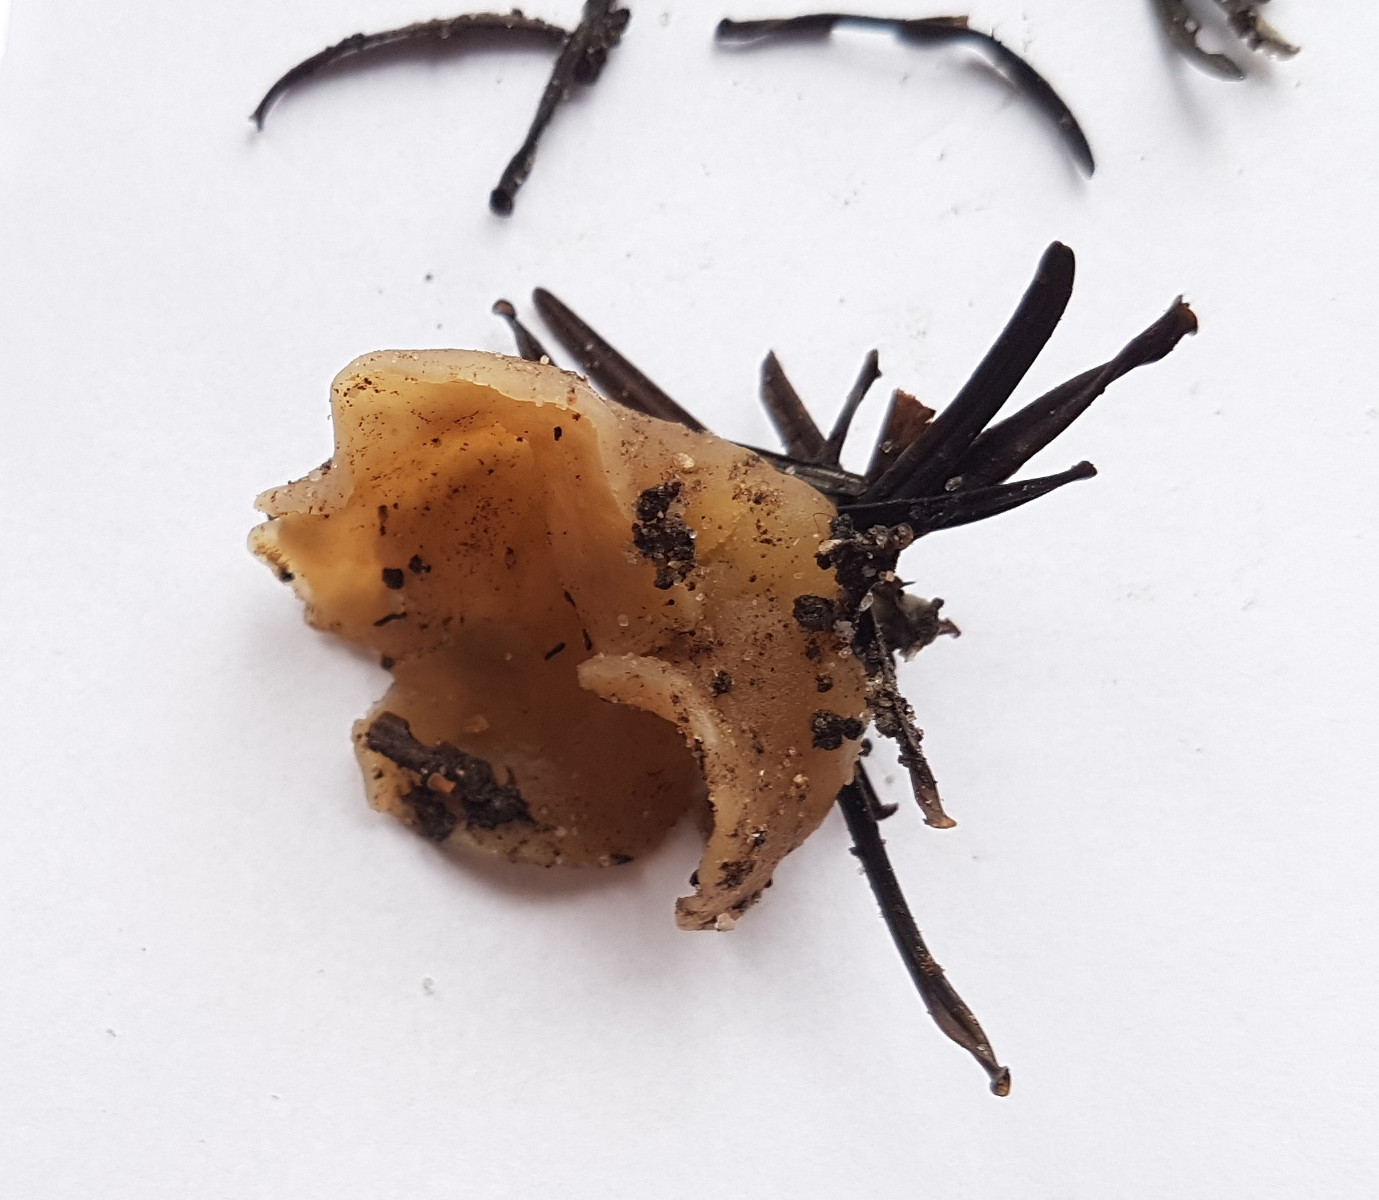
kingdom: Fungi
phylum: Ascomycota
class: Pezizomycetes
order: Pezizales
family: Otideaceae
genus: Otidea
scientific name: Otidea
